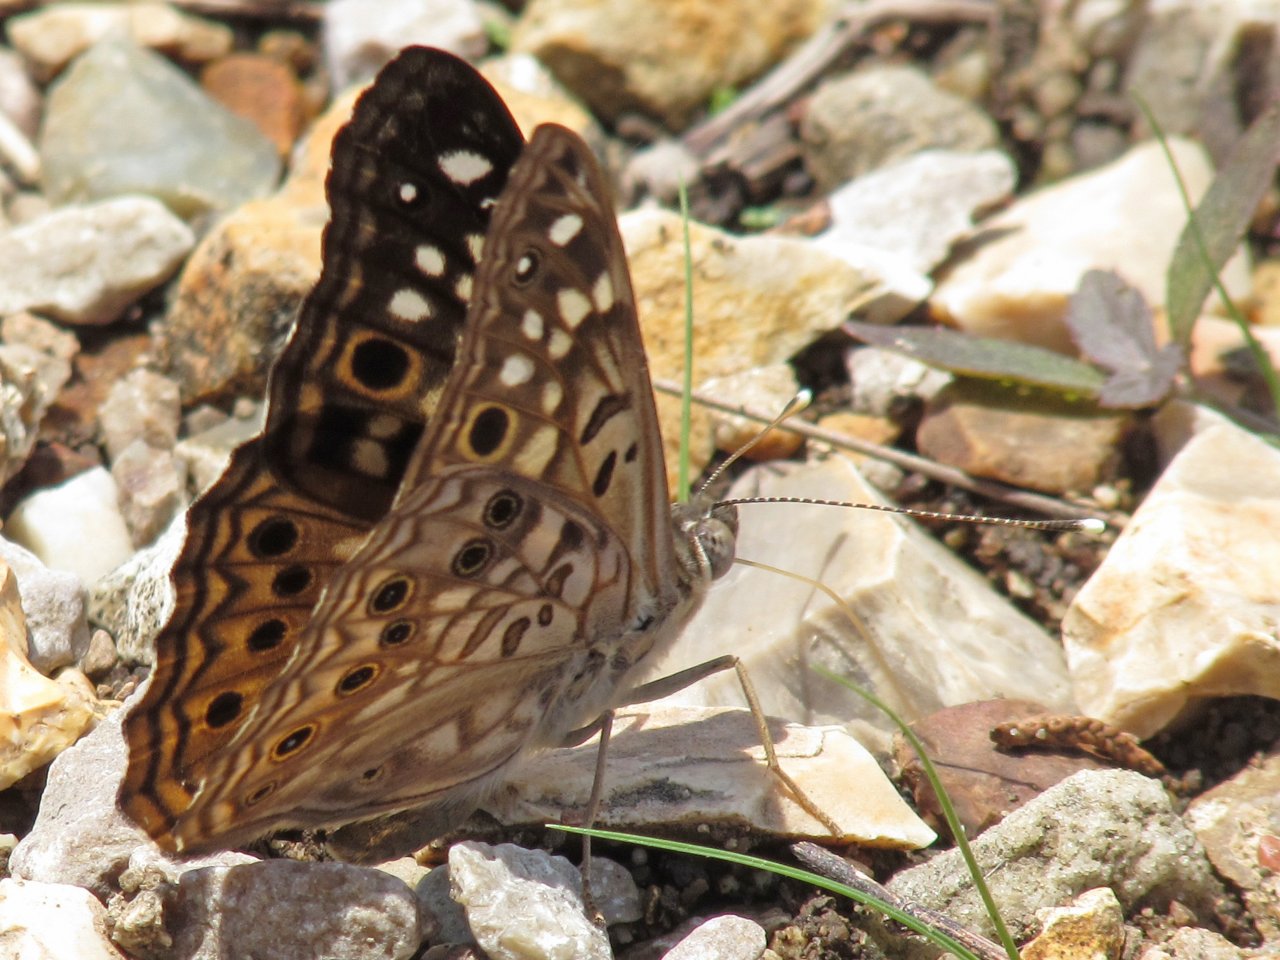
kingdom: Animalia
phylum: Arthropoda
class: Insecta
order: Lepidoptera
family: Nymphalidae
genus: Asterocampa
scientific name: Asterocampa celtis
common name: Hackberry Emperor
